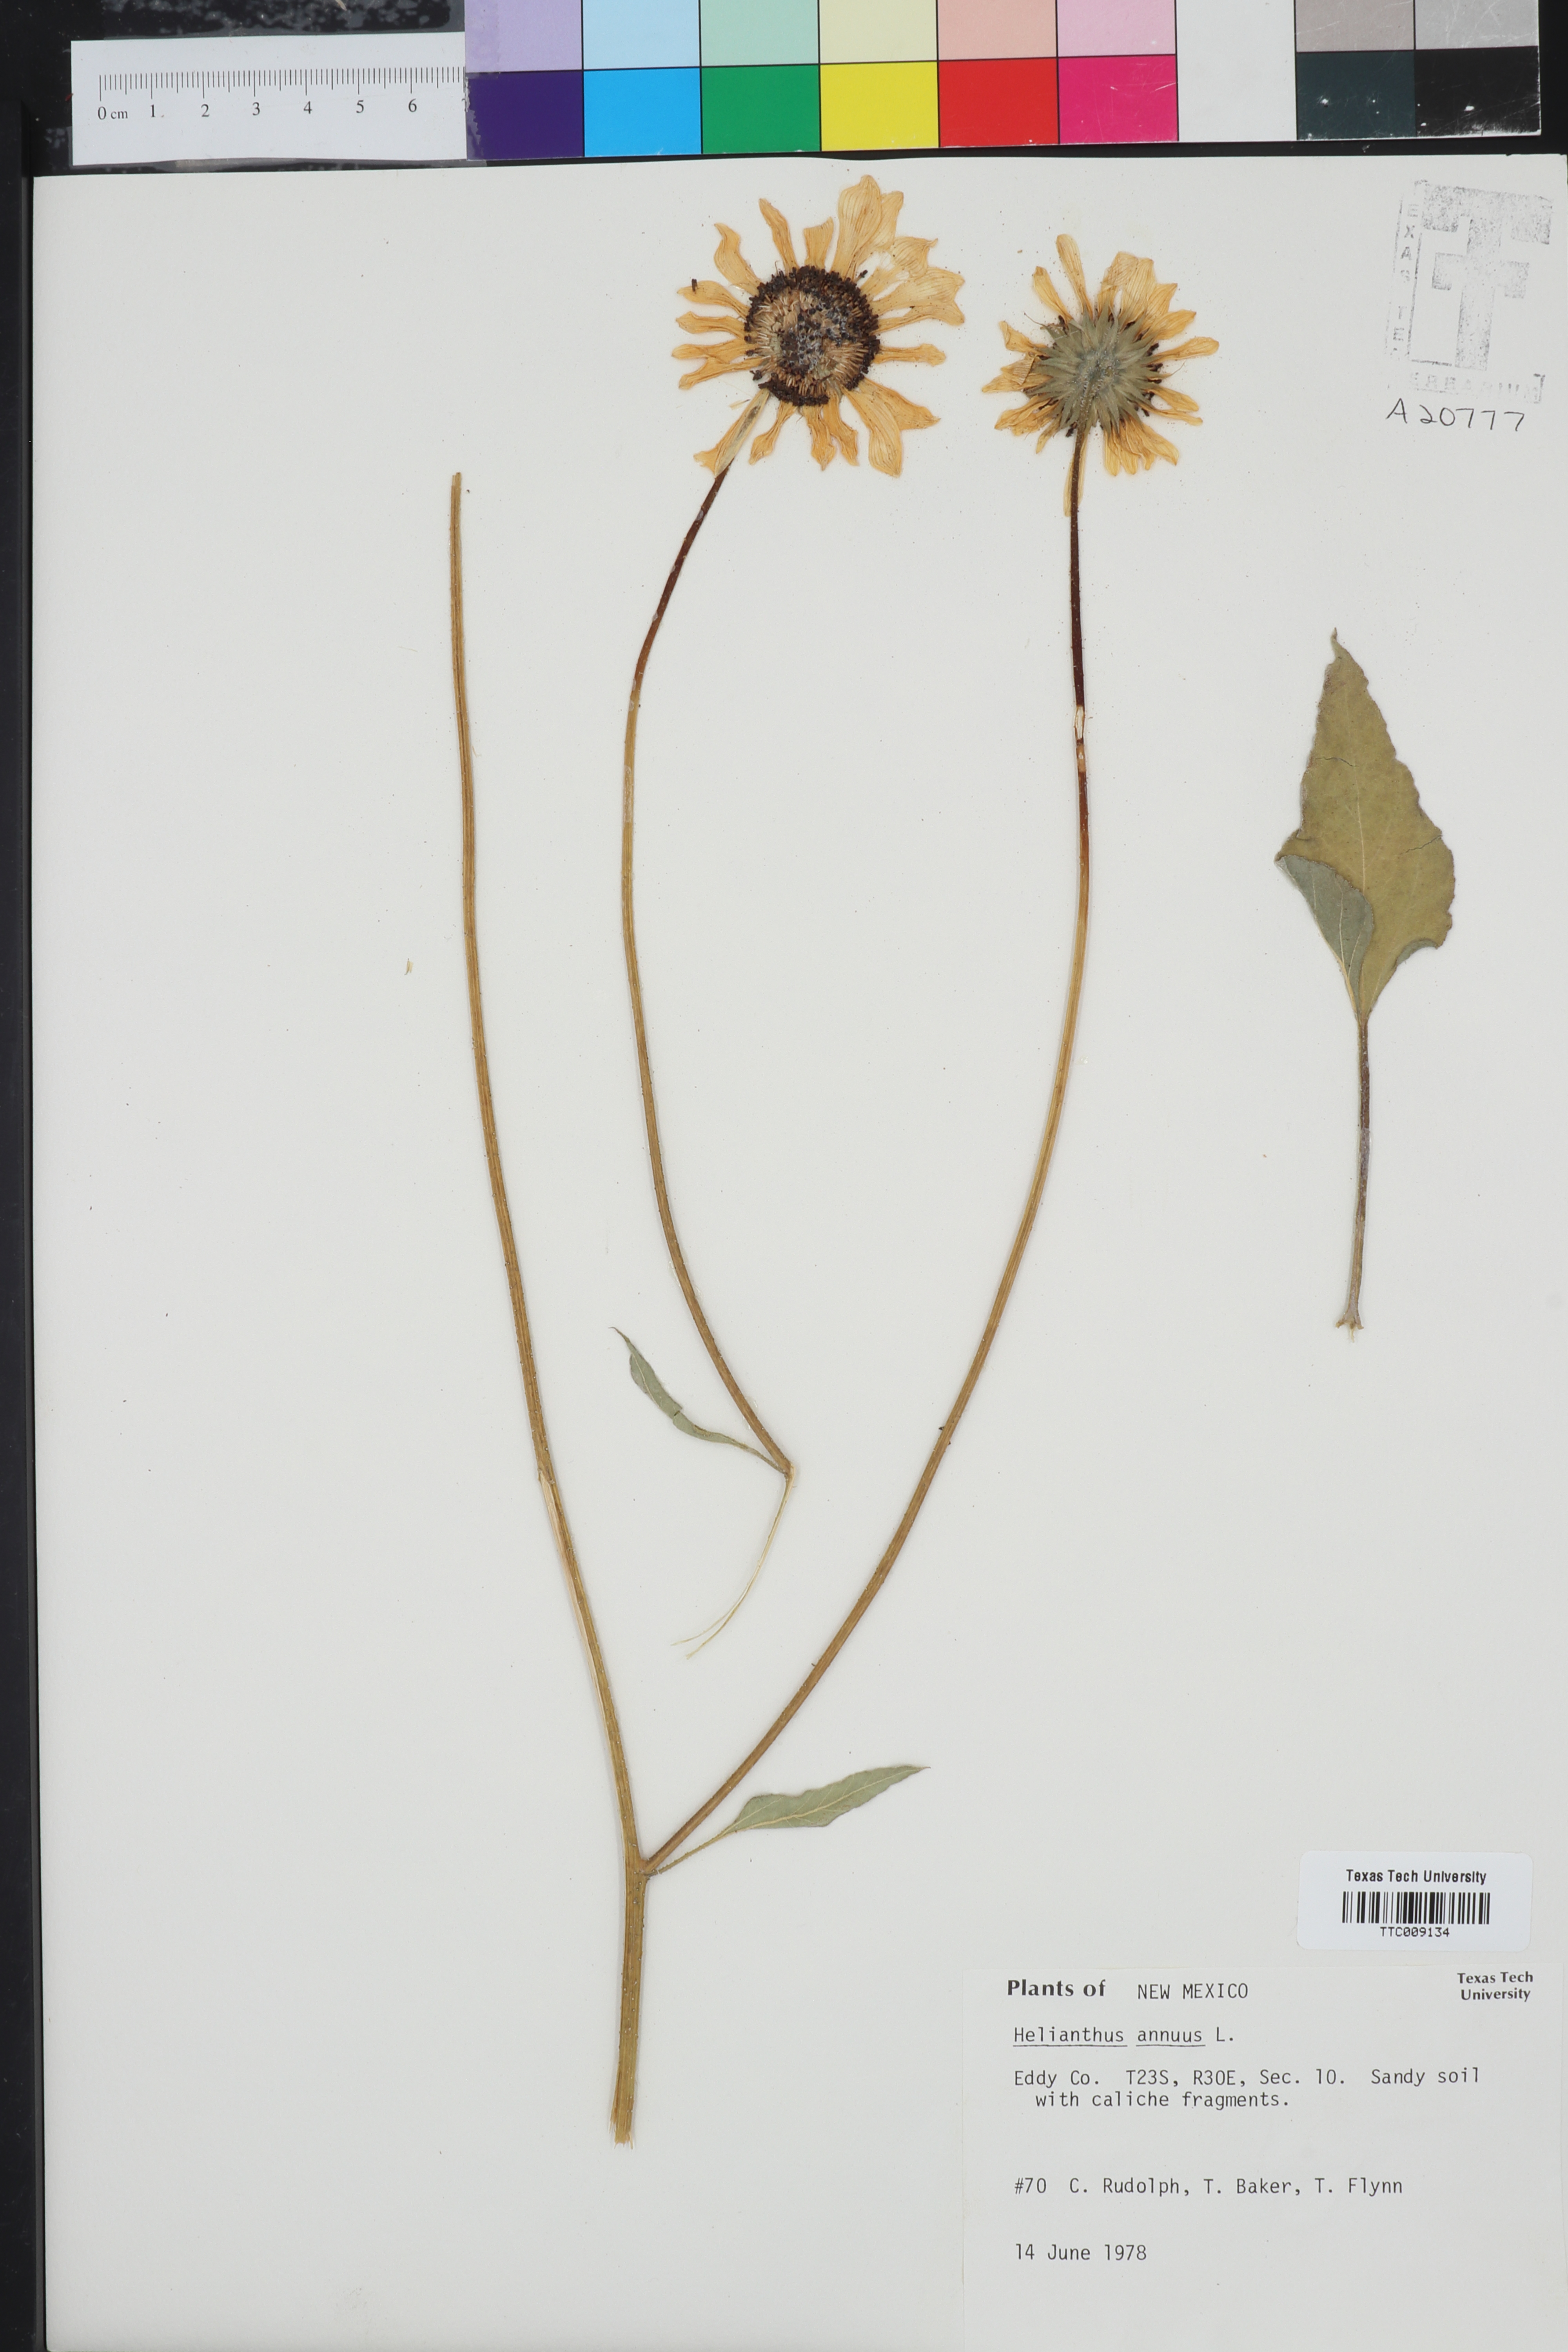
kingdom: Plantae
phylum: Tracheophyta
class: Magnoliopsida
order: Asterales
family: Asteraceae
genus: Helianthus
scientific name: Helianthus annuus
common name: Sunflower
